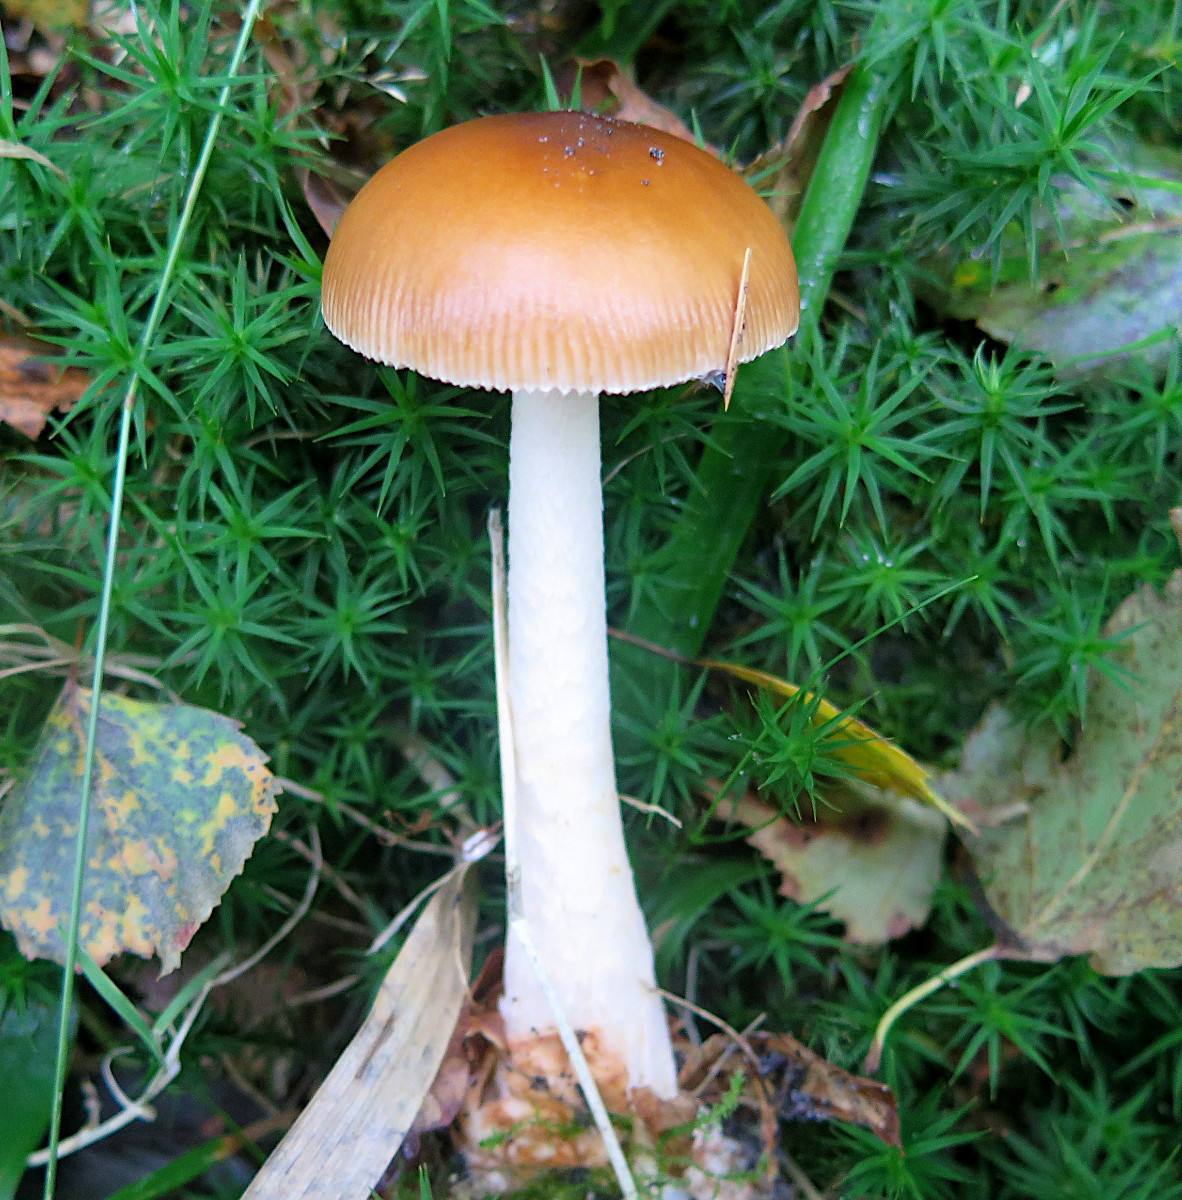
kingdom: Fungi
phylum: Basidiomycota
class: Agaricomycetes
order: Agaricales
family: Amanitaceae
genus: Amanita
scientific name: Amanita fulva
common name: brun kam-fluesvamp
